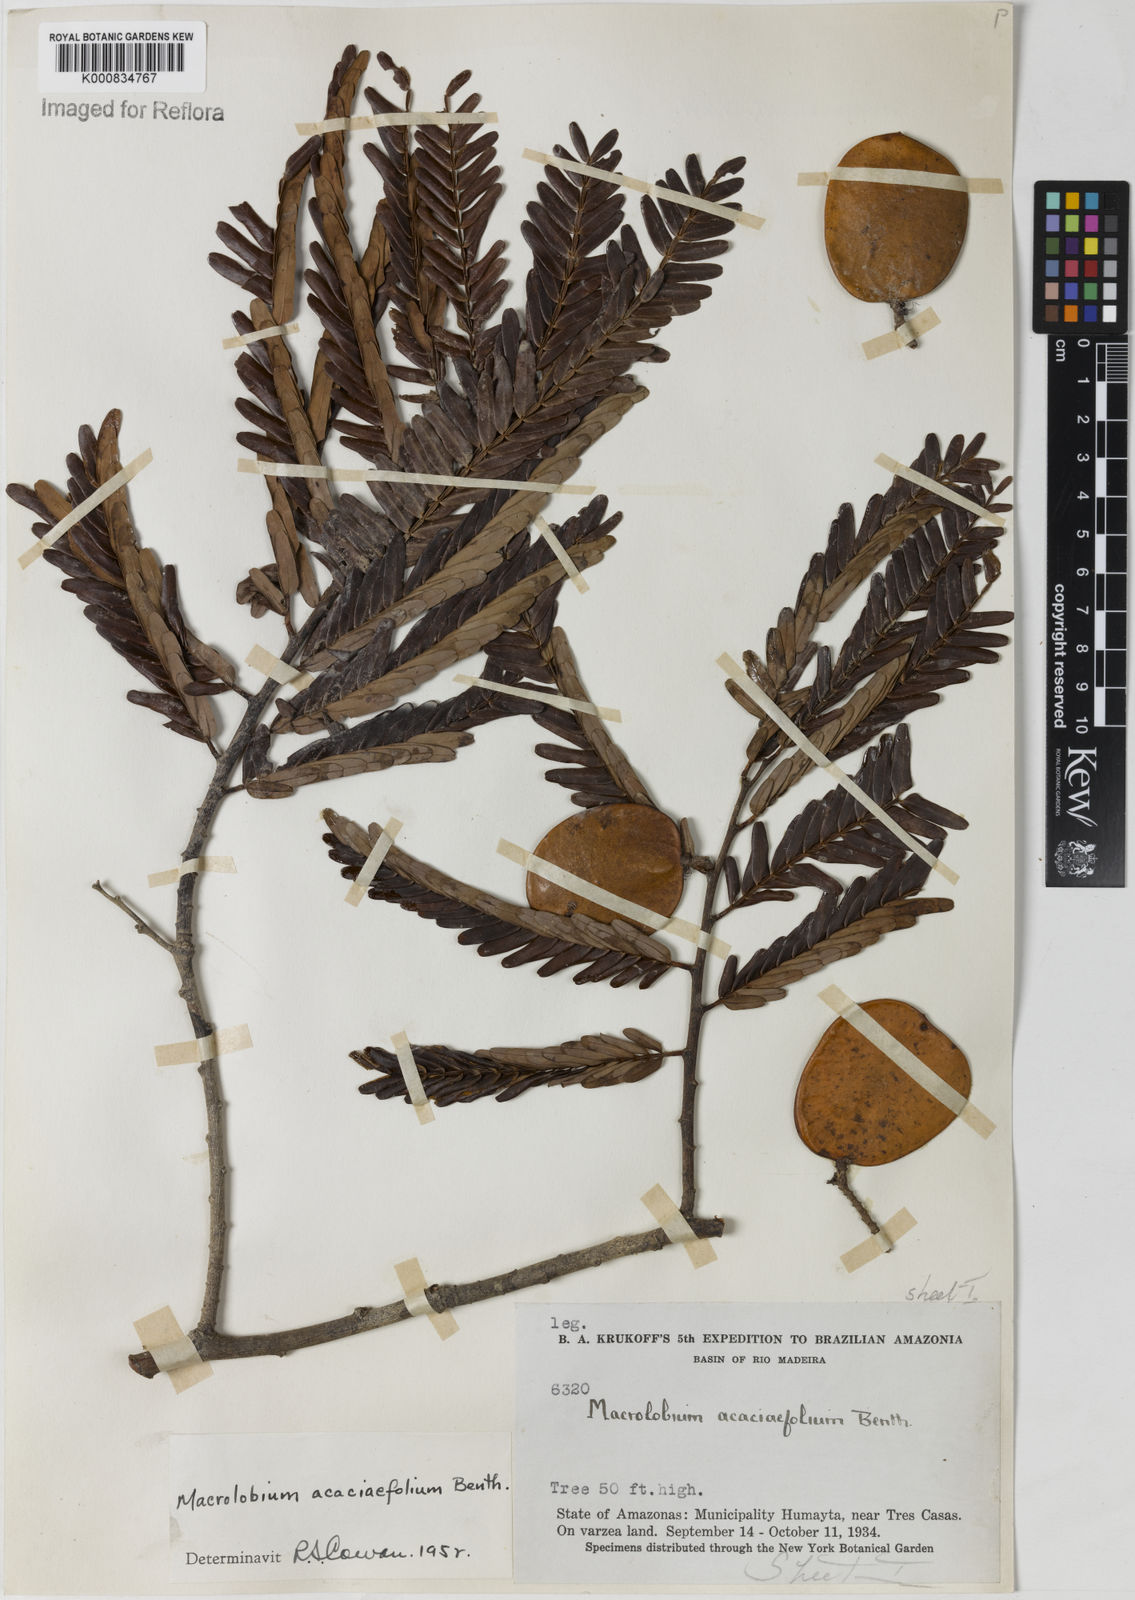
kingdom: Plantae
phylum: Tracheophyta
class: Magnoliopsida
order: Fabales
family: Fabaceae
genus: Macrolobium
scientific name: Macrolobium acaciifolium
